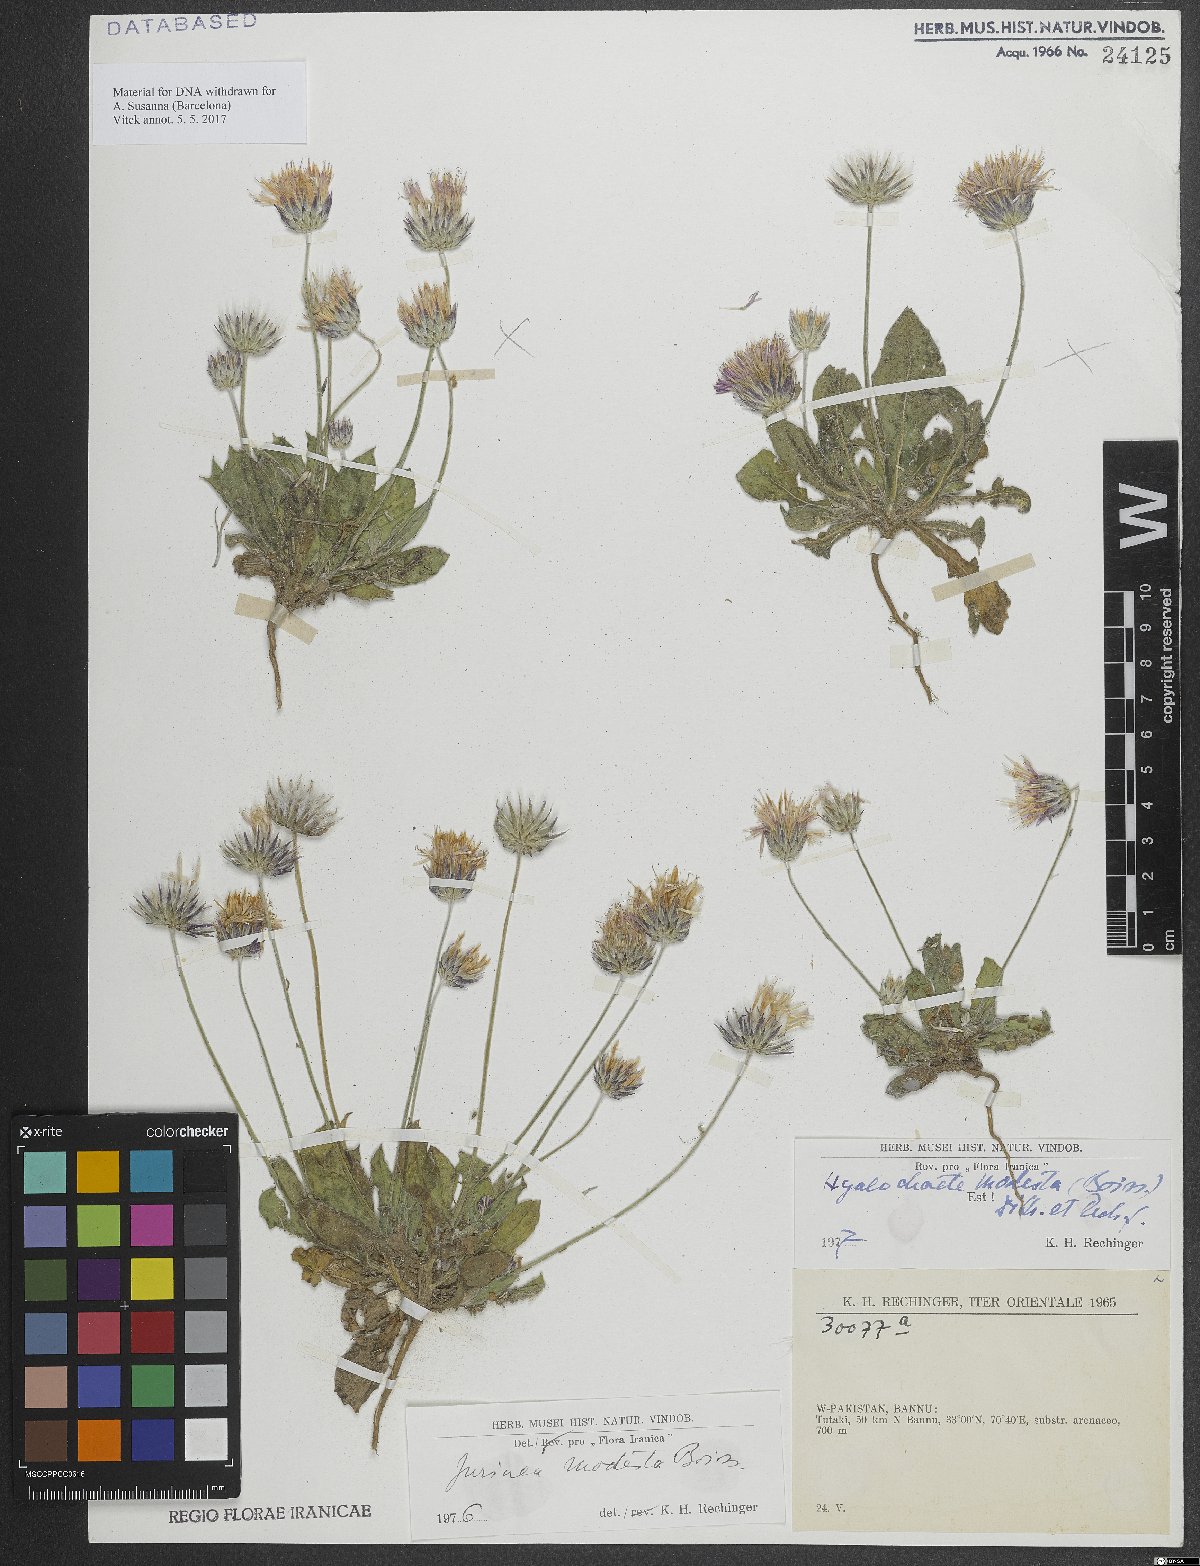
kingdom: Plantae
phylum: Tracheophyta
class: Magnoliopsida
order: Asterales
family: Asteraceae
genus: Jurinea
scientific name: Jurinea modesta
